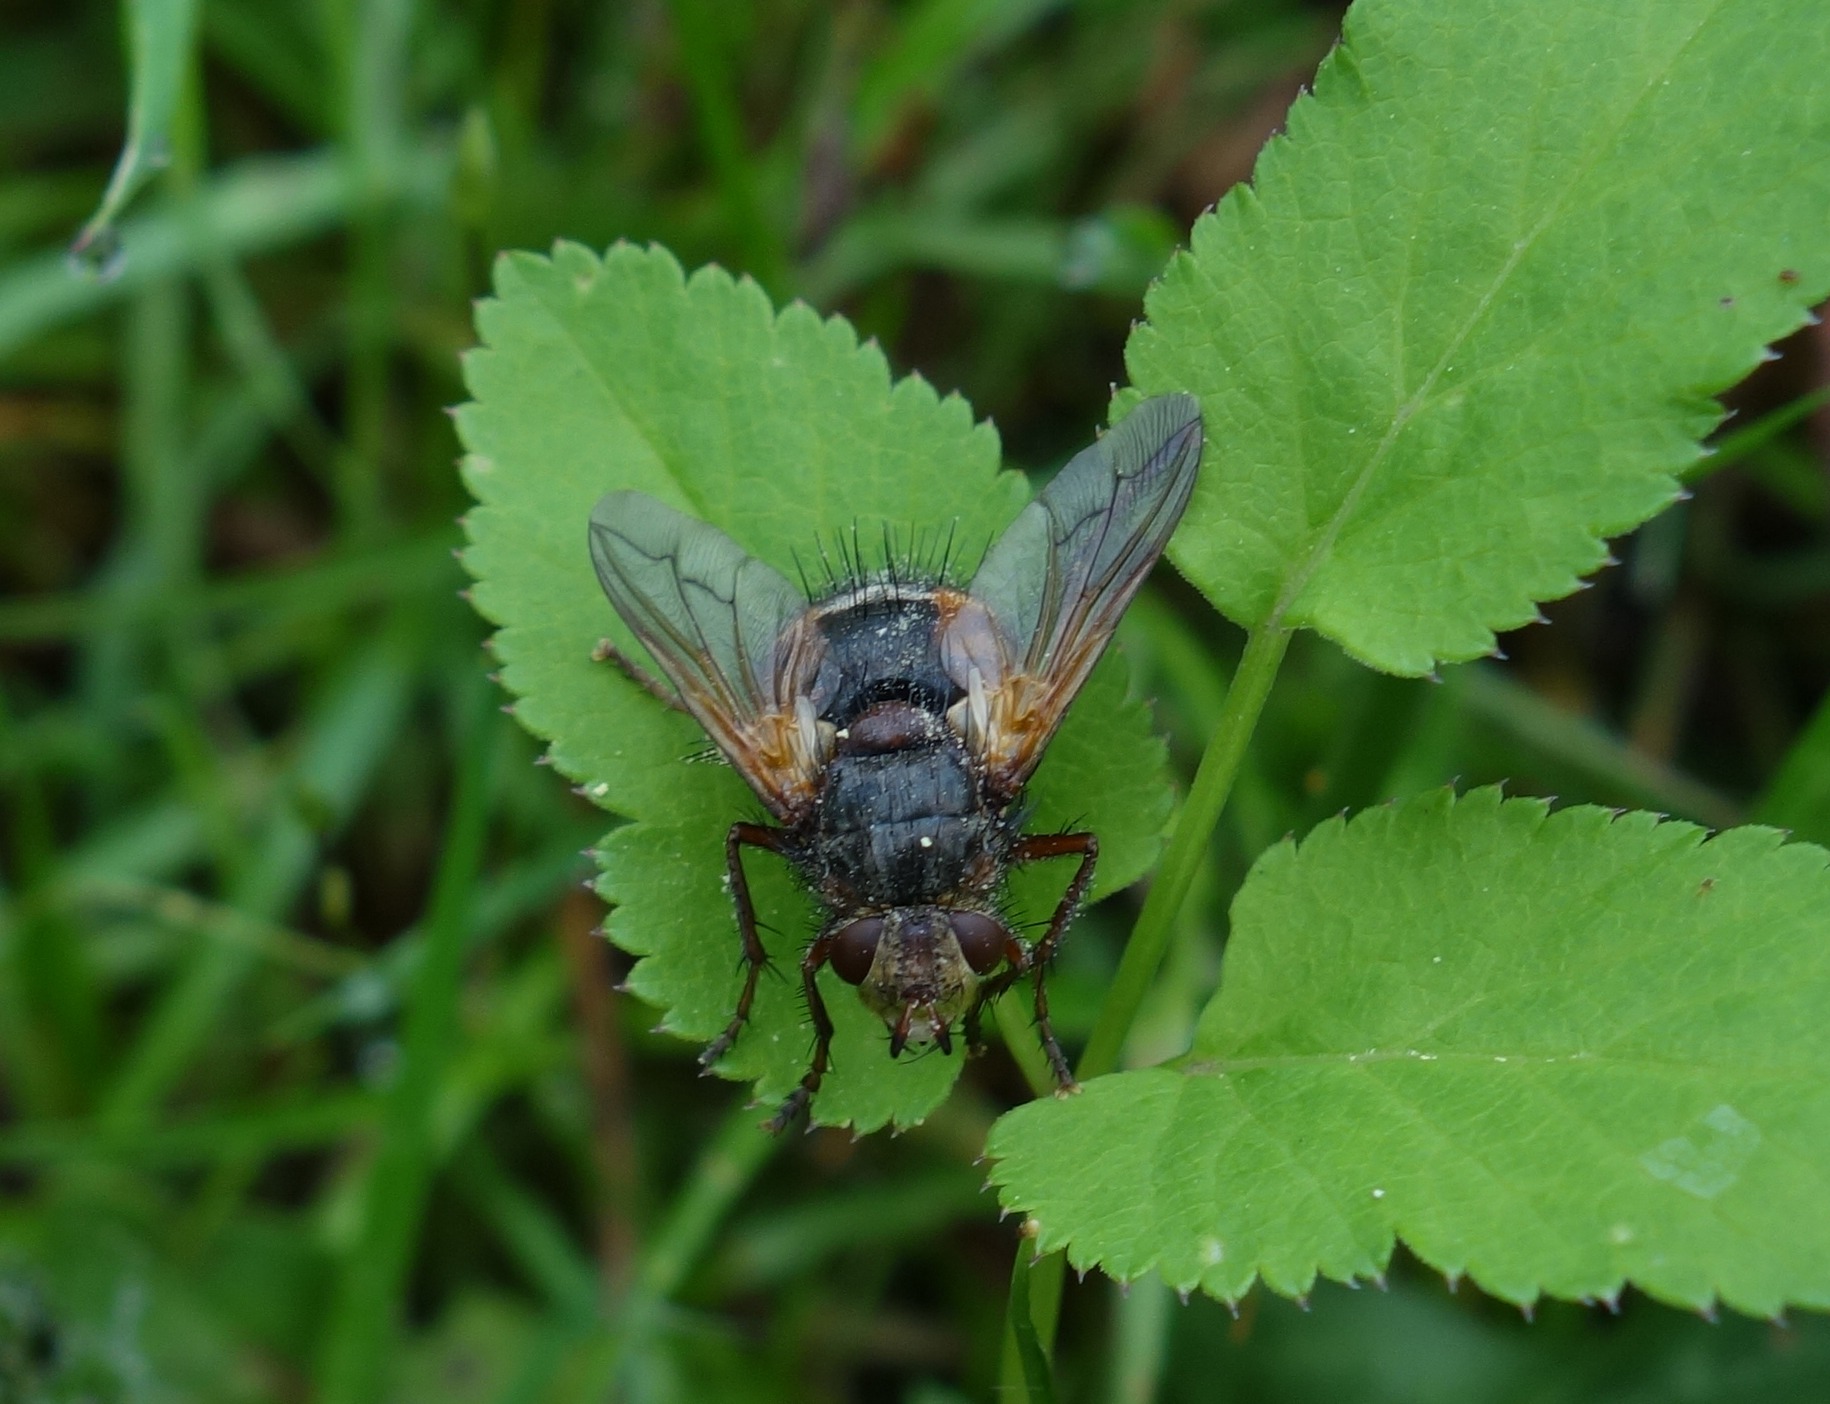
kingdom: Animalia
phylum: Arthropoda
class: Insecta
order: Diptera
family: Tachinidae
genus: Tachina
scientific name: Tachina fera
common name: Mellemfluen oskar
